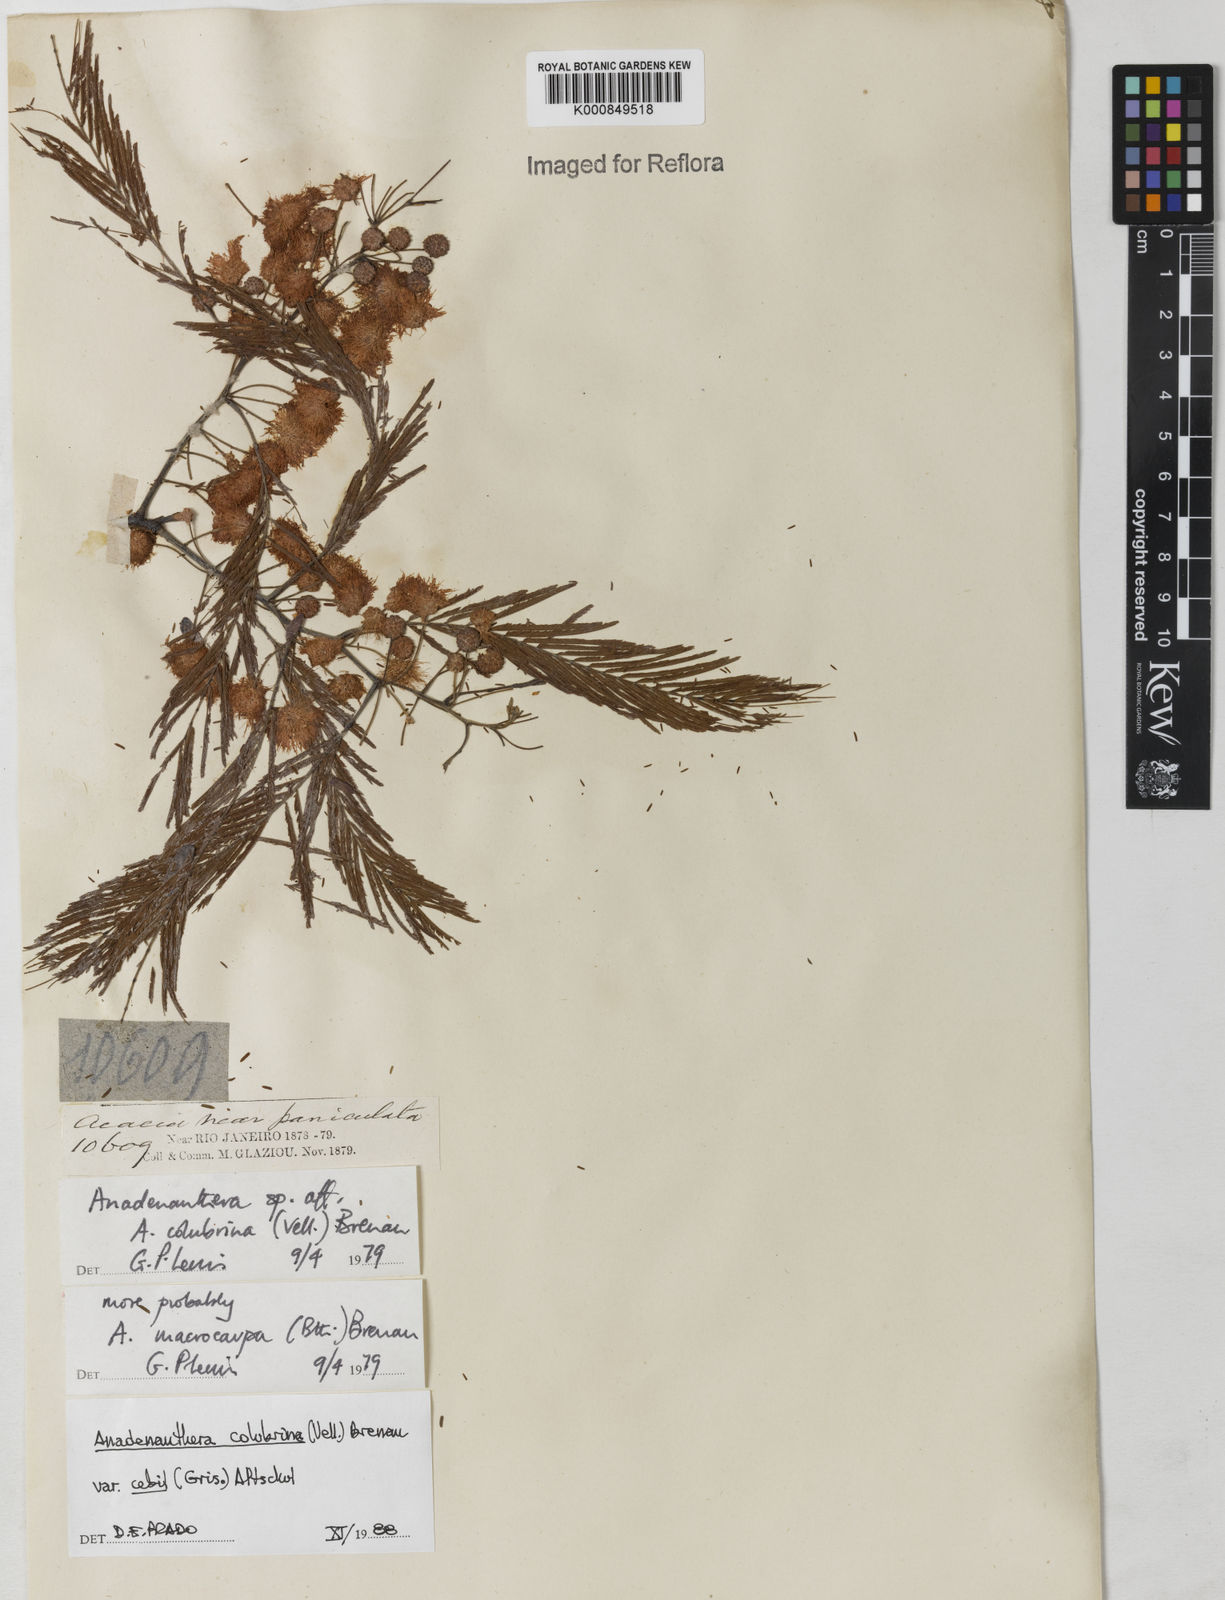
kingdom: Plantae
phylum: Tracheophyta
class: Magnoliopsida
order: Fabales
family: Fabaceae
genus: Anadenanthera
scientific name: Anadenanthera colubrina
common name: Curupay
